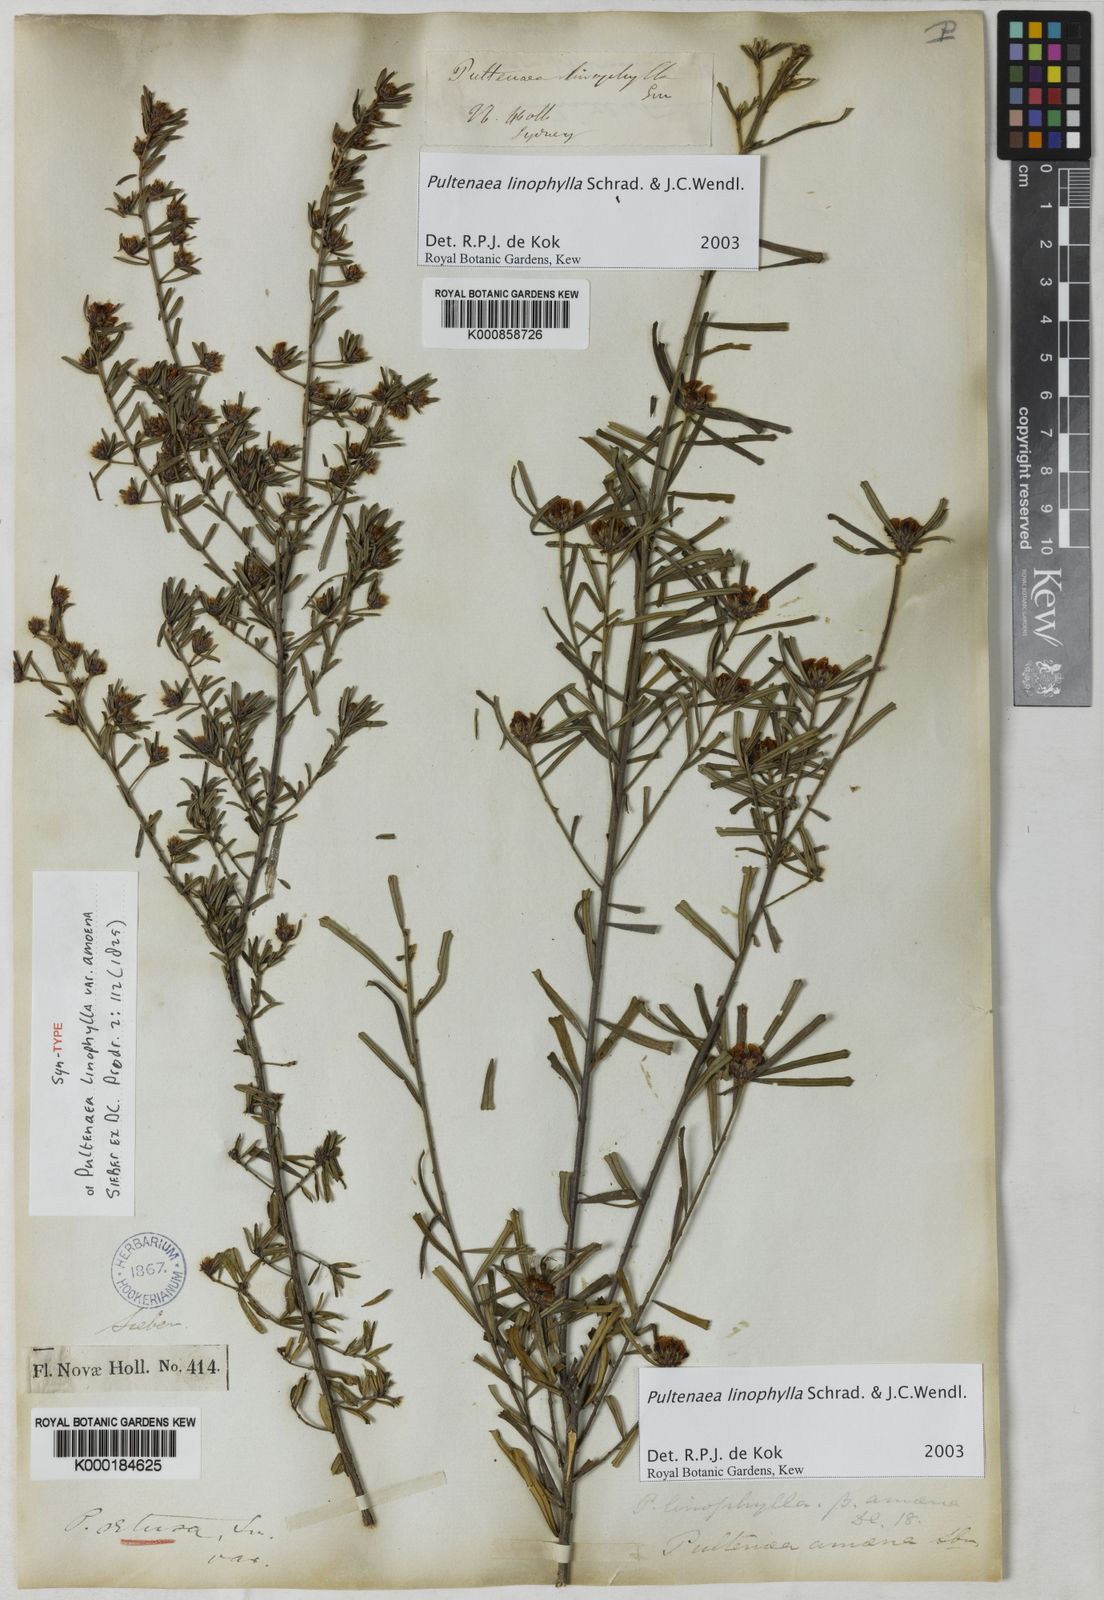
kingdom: Plantae
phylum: Tracheophyta
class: Magnoliopsida
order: Fabales
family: Fabaceae
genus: Pultenaea
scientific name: Pultenaea linophylla
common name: Halo bush-pea
